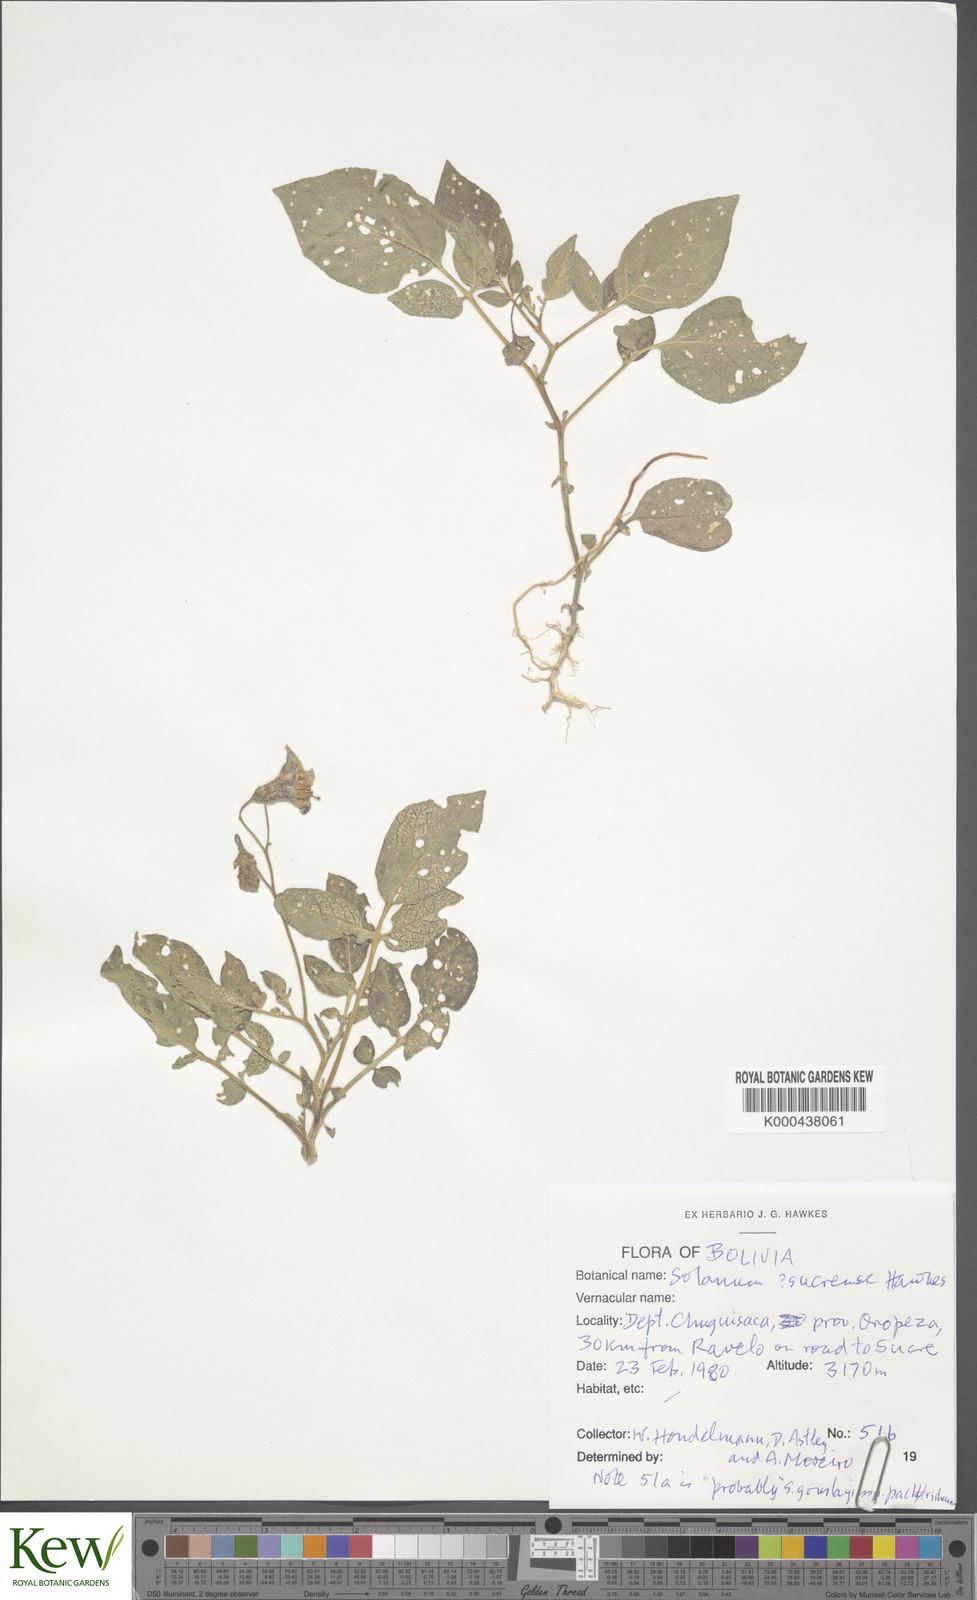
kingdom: Plantae
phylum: Tracheophyta
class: Magnoliopsida
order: Solanales
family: Solanaceae
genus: Solanum
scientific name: Solanum brevicaule
